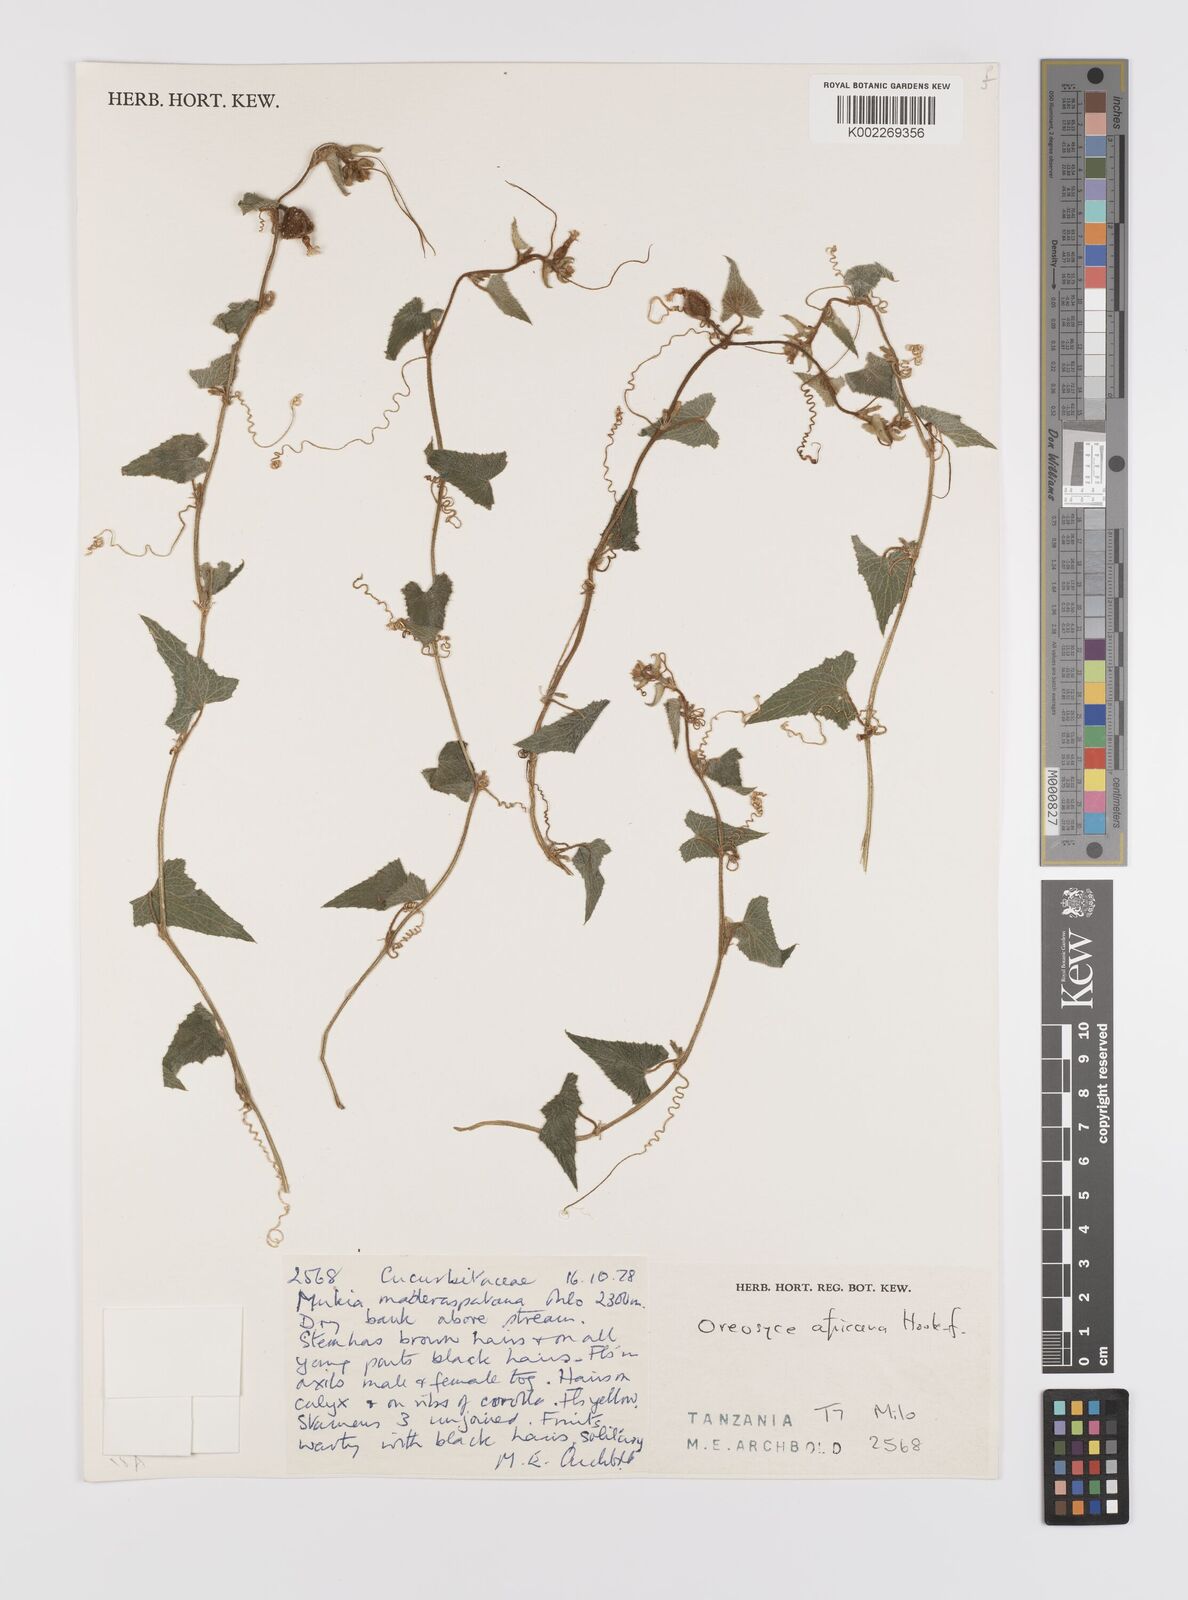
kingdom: Plantae
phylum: Tracheophyta
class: Magnoliopsida
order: Cucurbitales
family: Cucurbitaceae
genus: Cucumis
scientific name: Cucumis oreosyce
